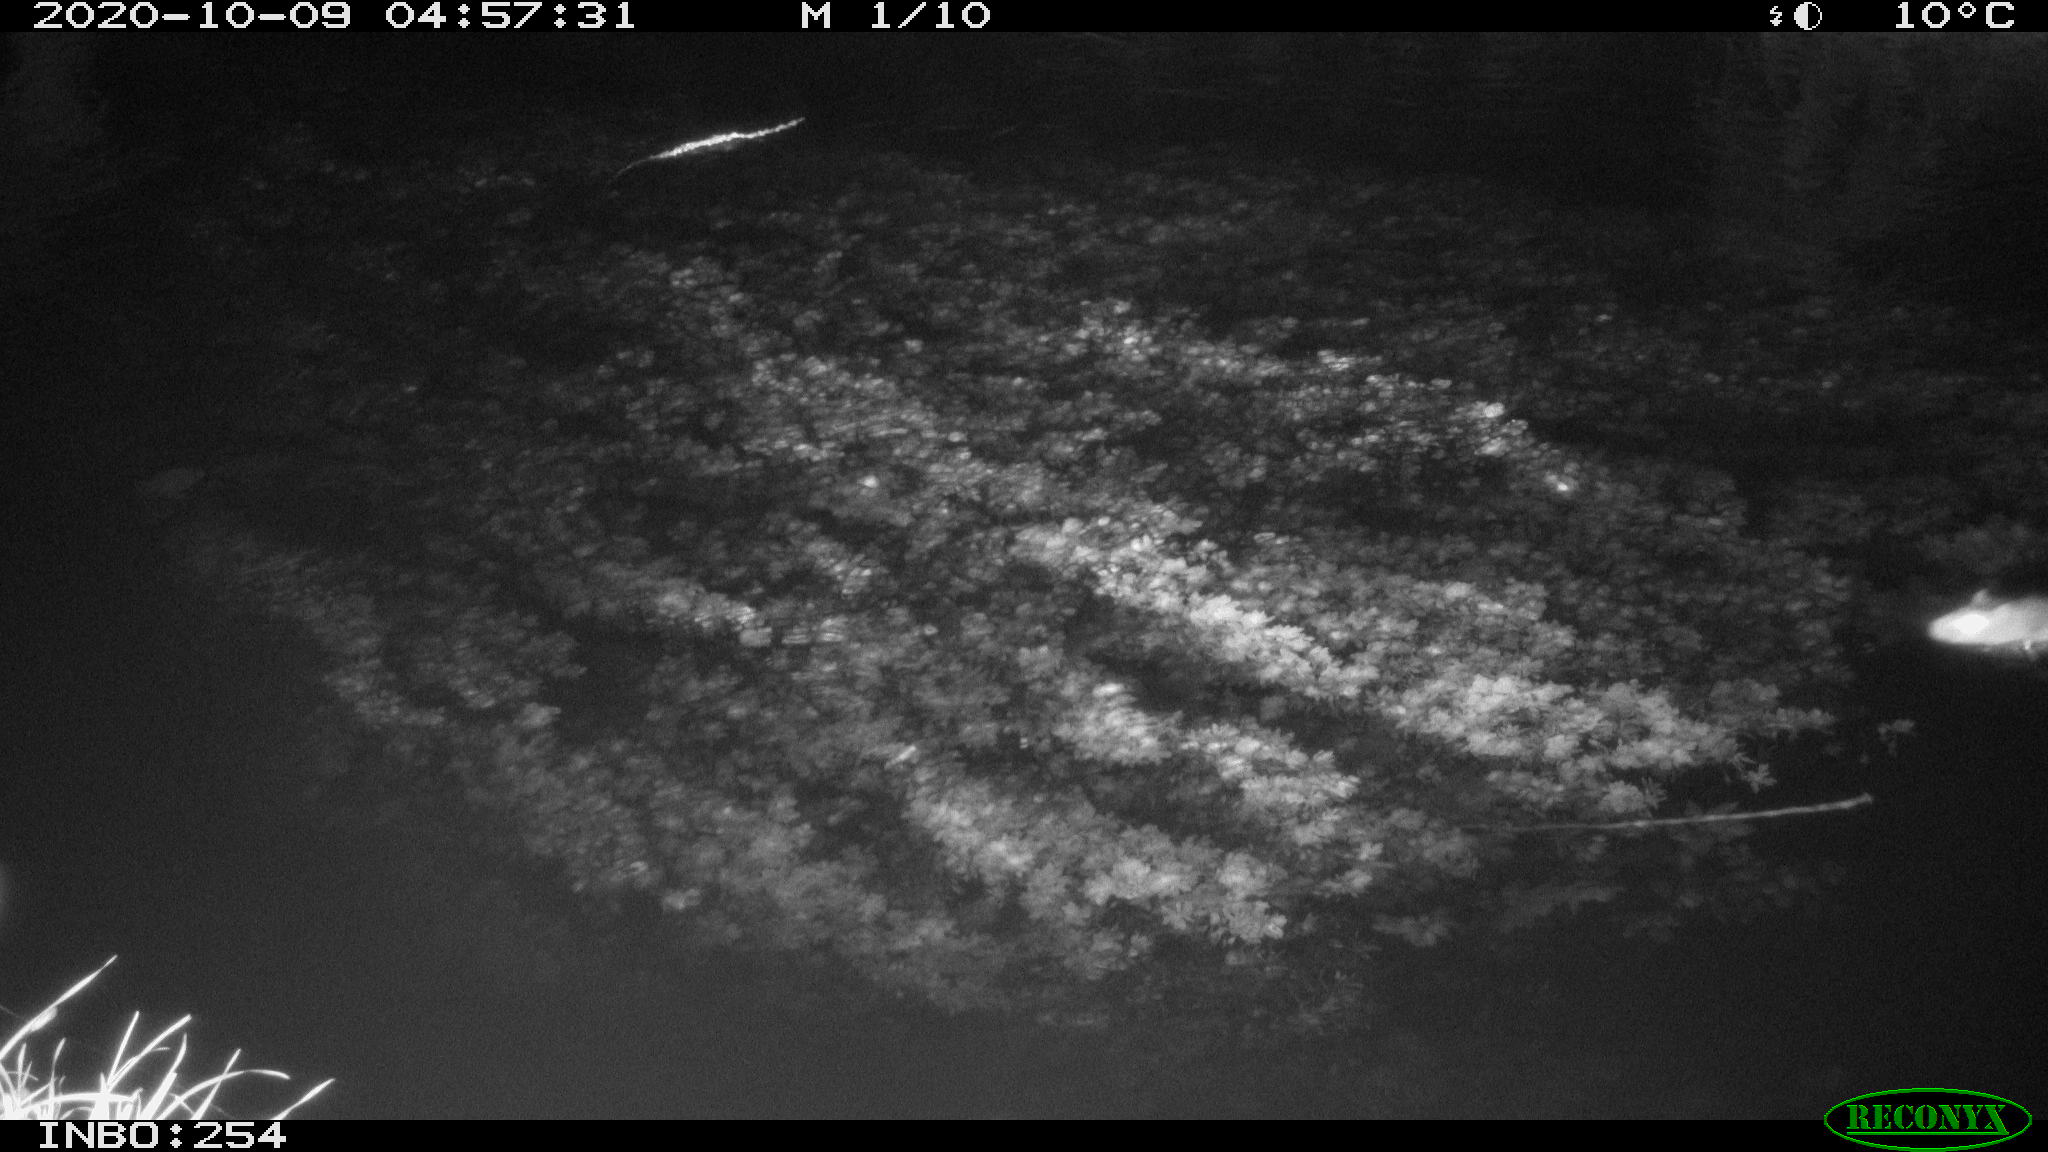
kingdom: Animalia
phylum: Chordata
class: Mammalia
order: Rodentia
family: Muridae
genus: Rattus
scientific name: Rattus norvegicus
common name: Brown rat
